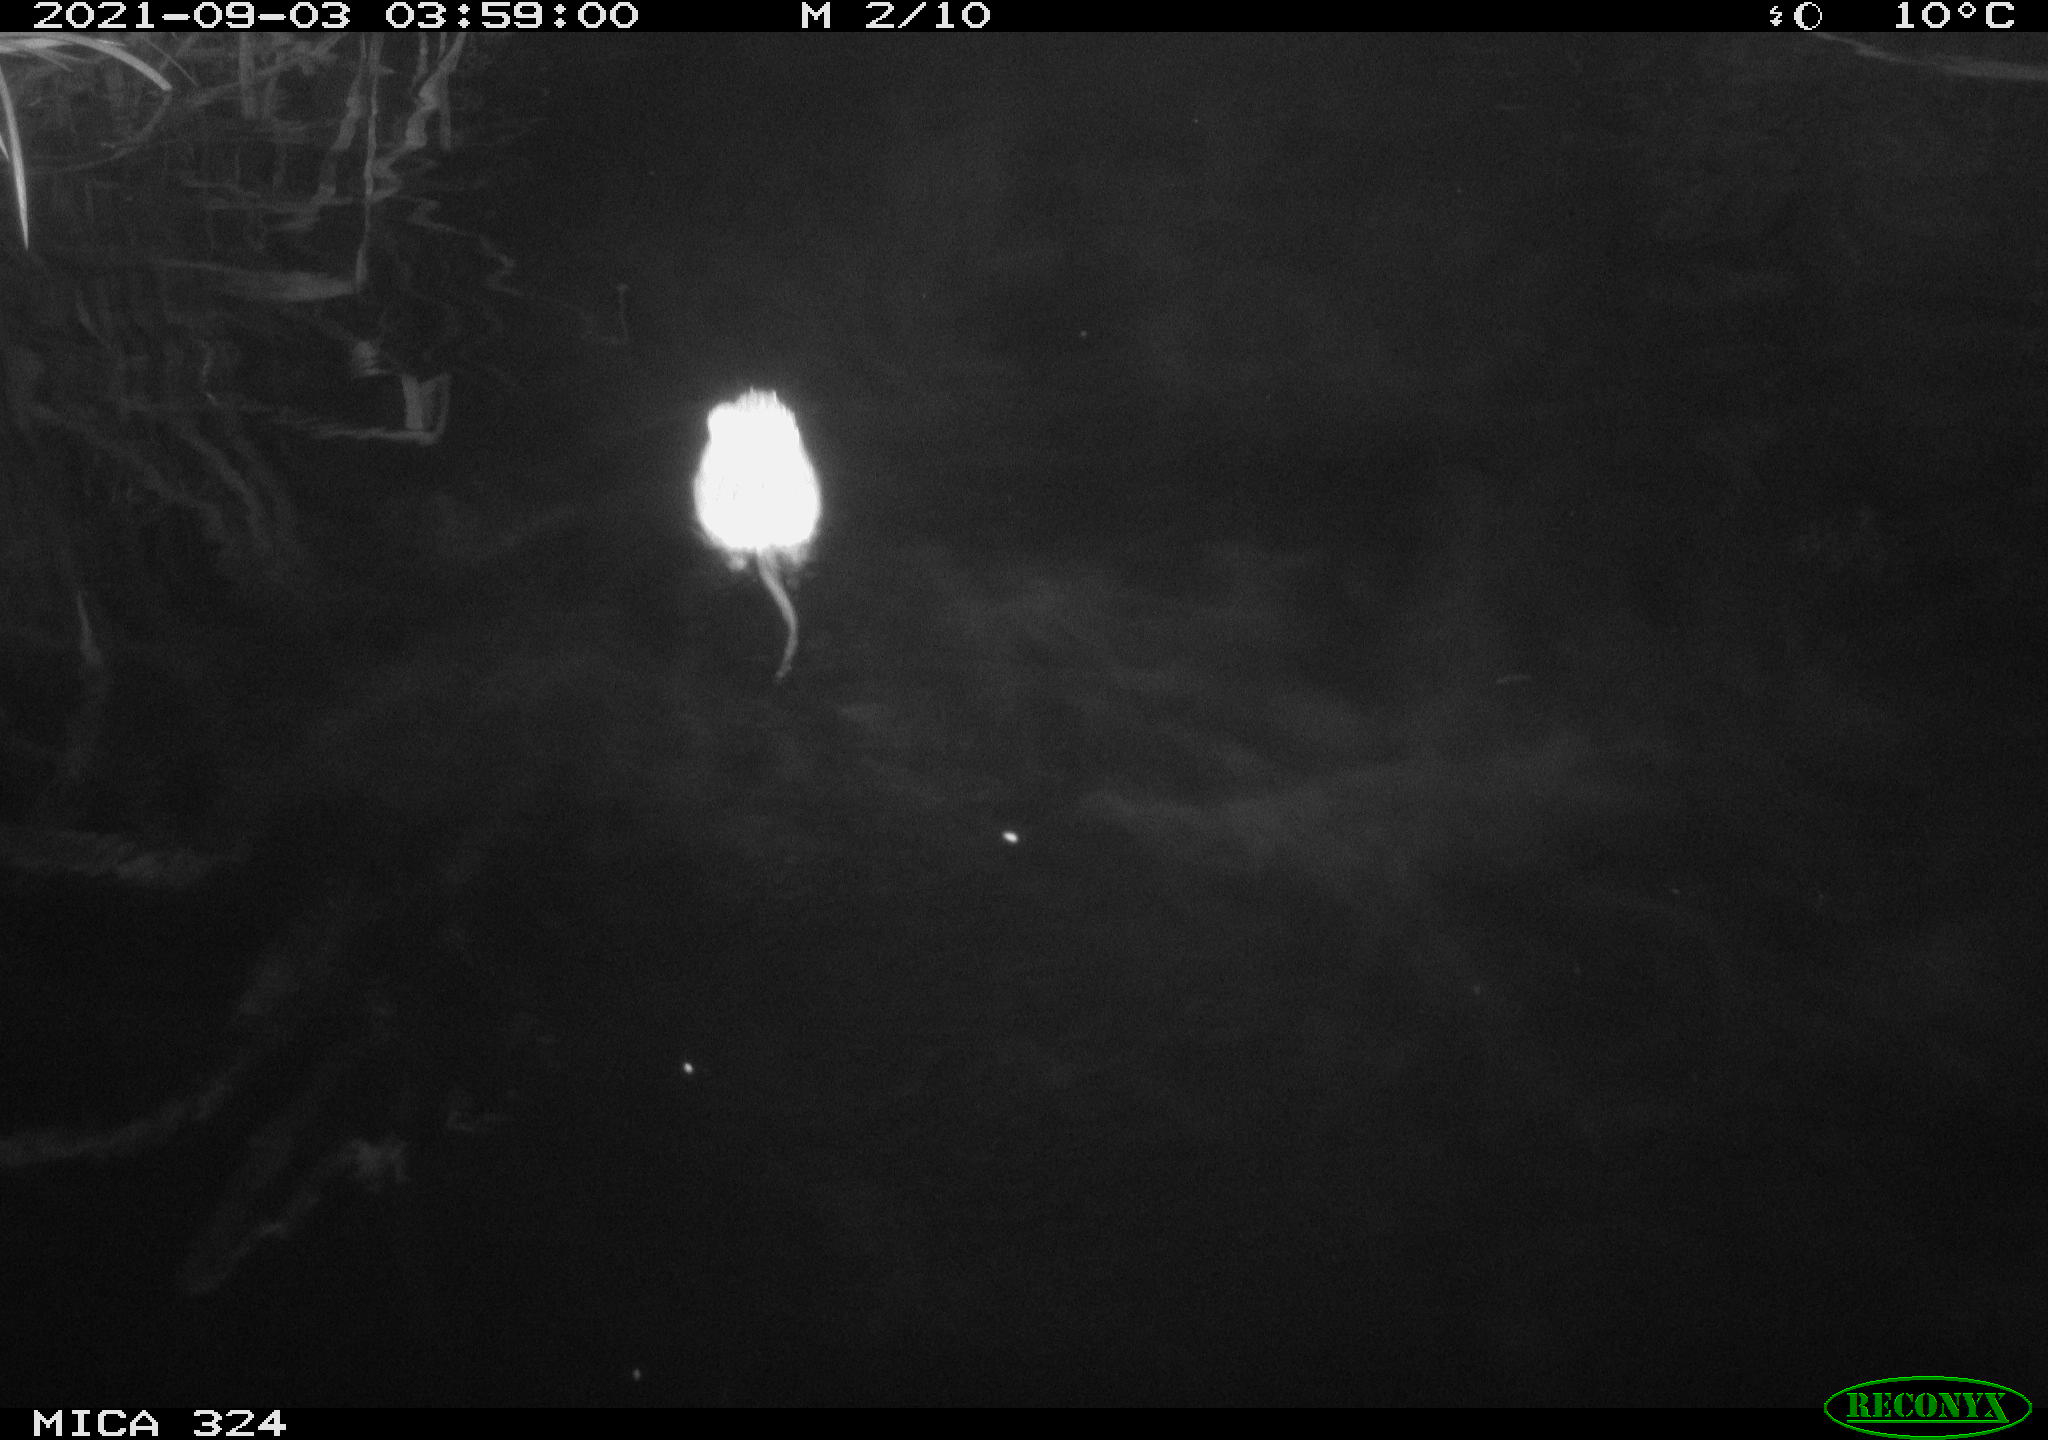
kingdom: Animalia
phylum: Chordata
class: Mammalia
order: Rodentia
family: Cricetidae
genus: Ondatra
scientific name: Ondatra zibethicus
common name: Muskrat
